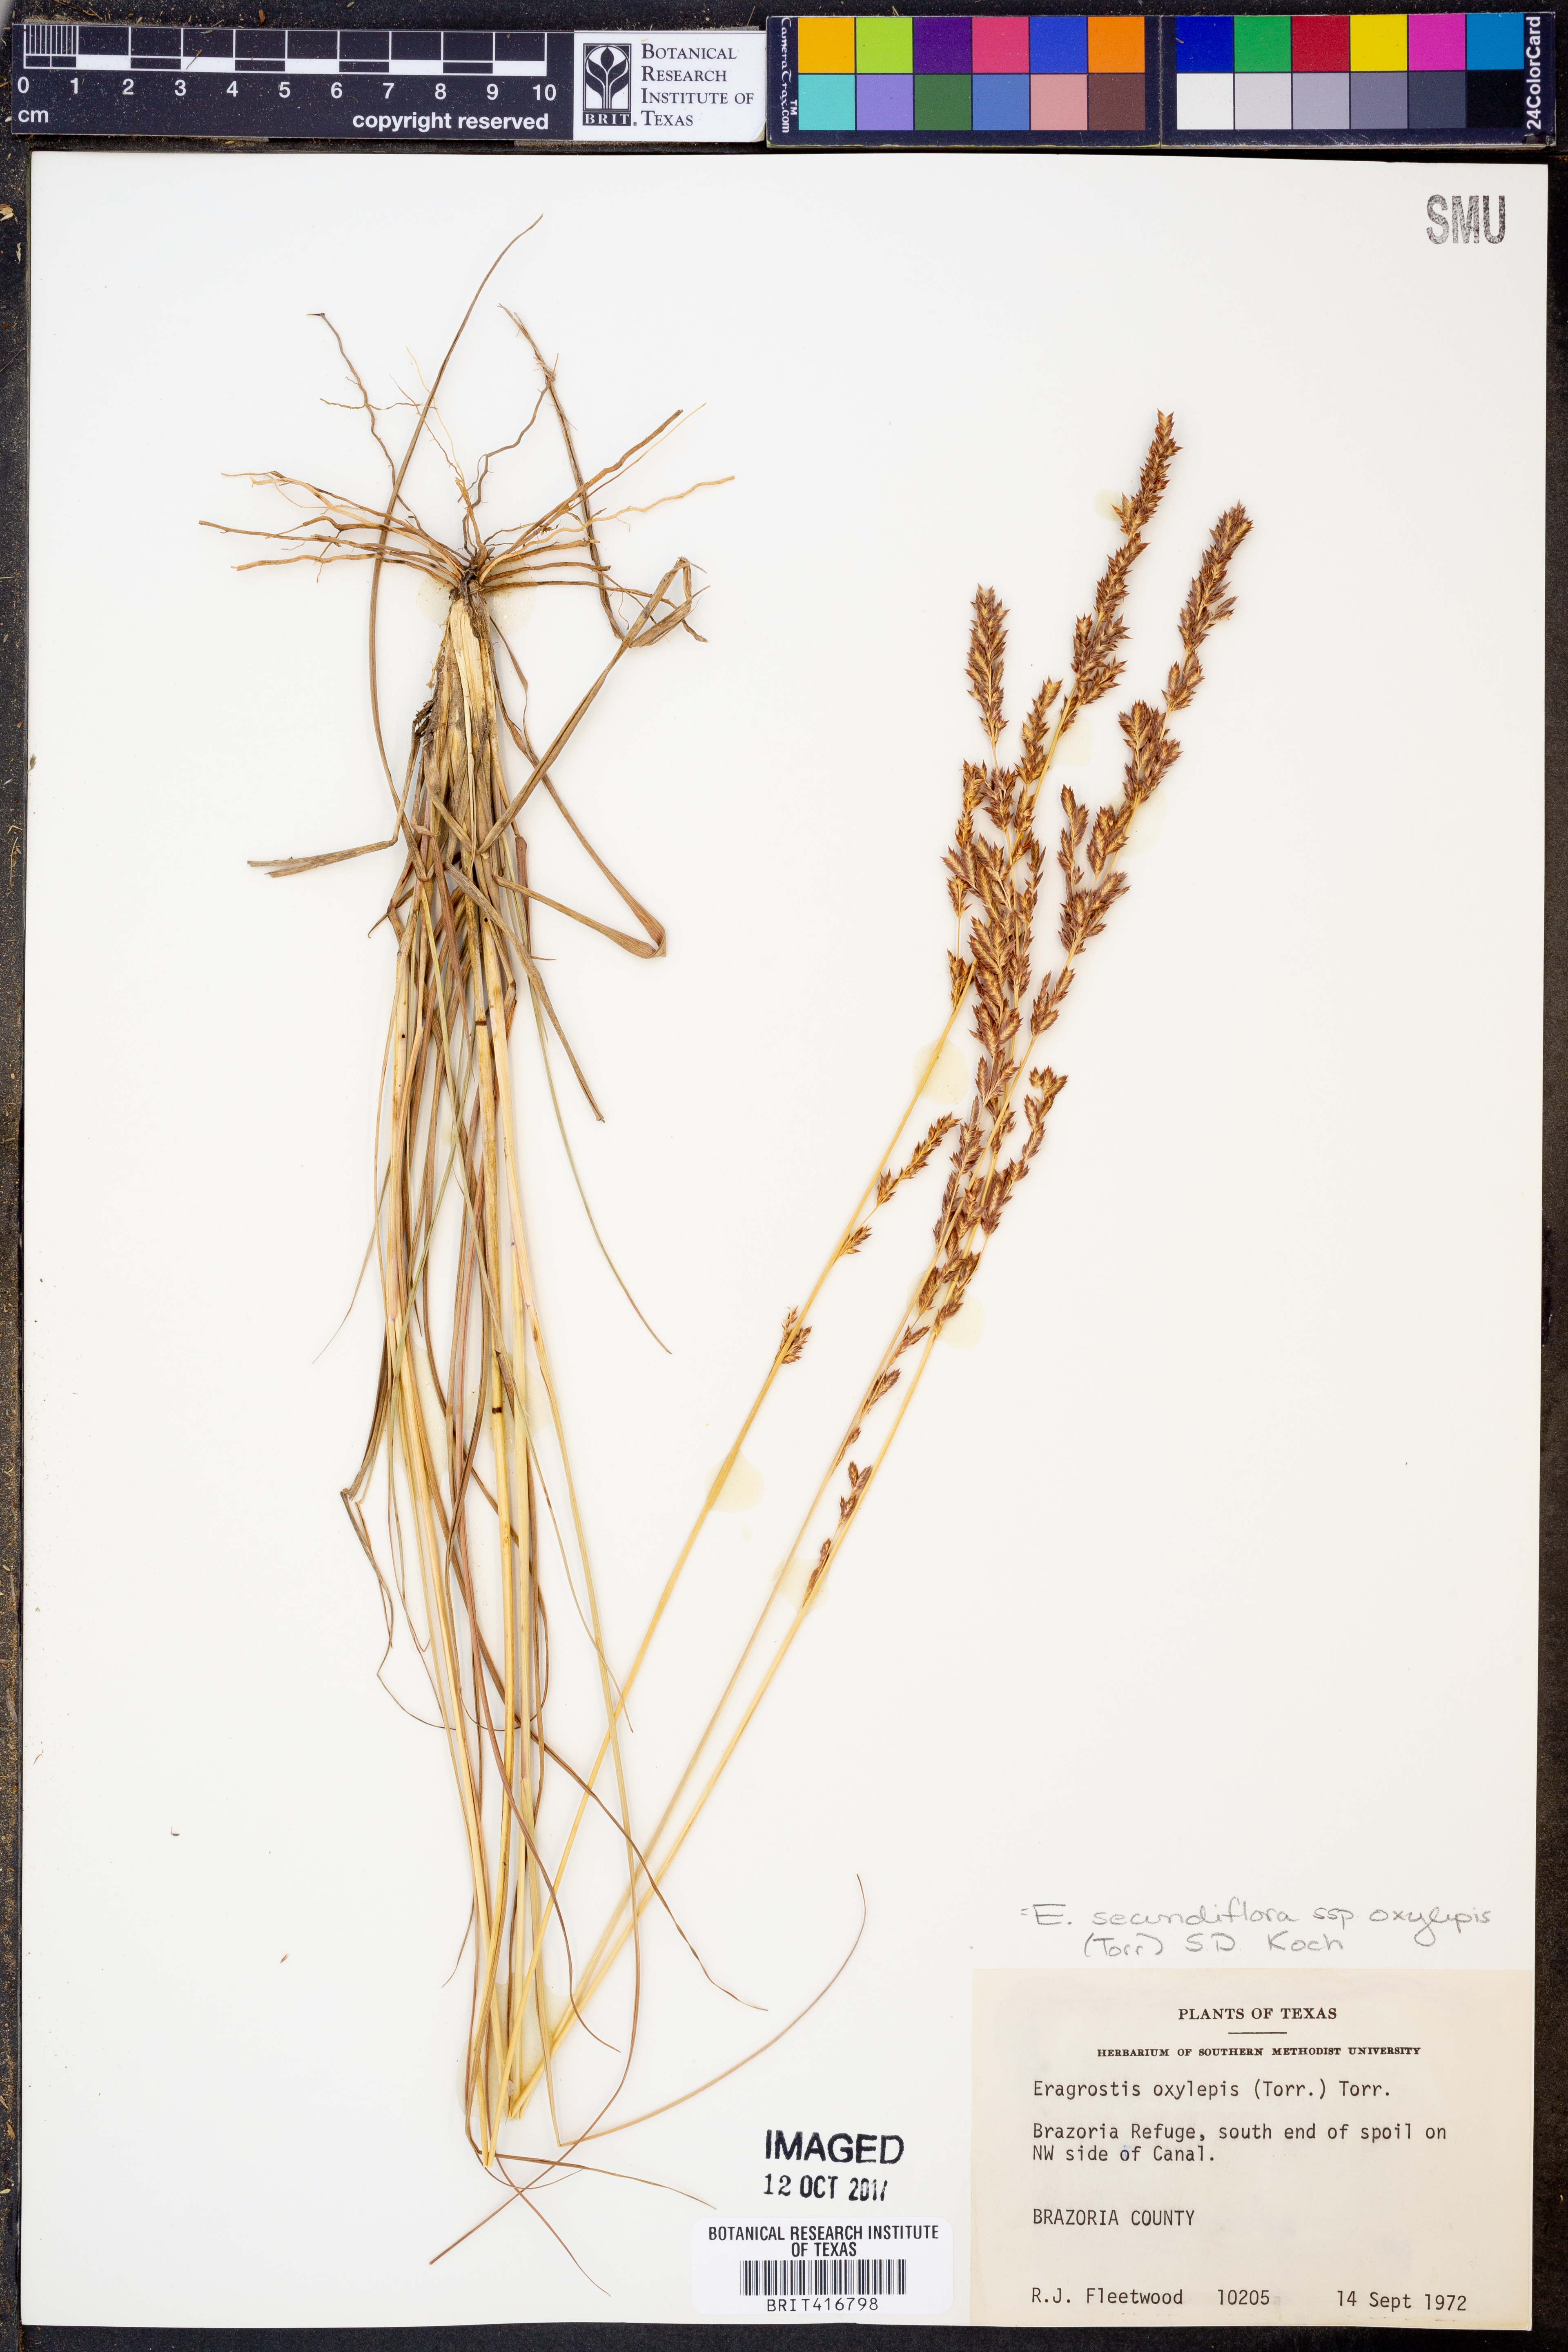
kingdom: Plantae
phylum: Tracheophyta
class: Liliopsida
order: Poales
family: Poaceae
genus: Eragrostis
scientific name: Eragrostis secundiflora
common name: Red love grass
